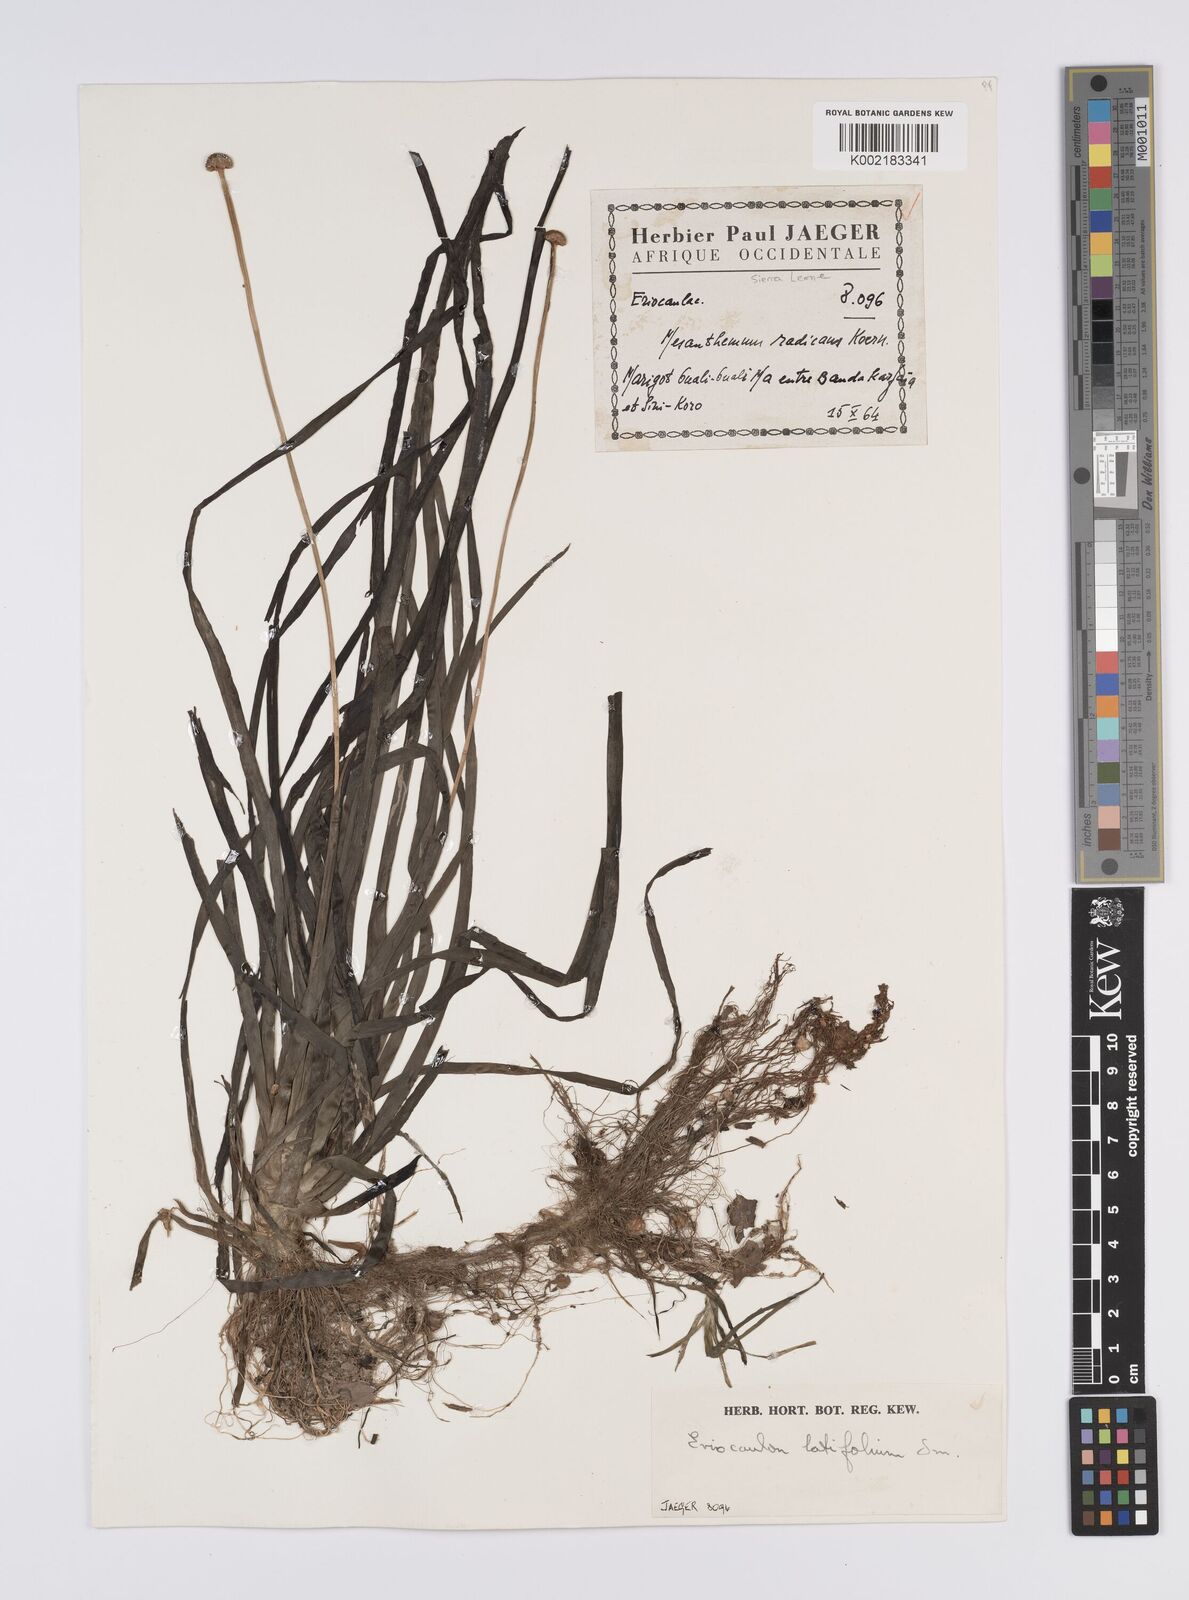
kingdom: Plantae
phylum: Tracheophyta
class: Liliopsida
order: Poales
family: Eriocaulaceae
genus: Eriocaulon
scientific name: Eriocaulon latifolium
